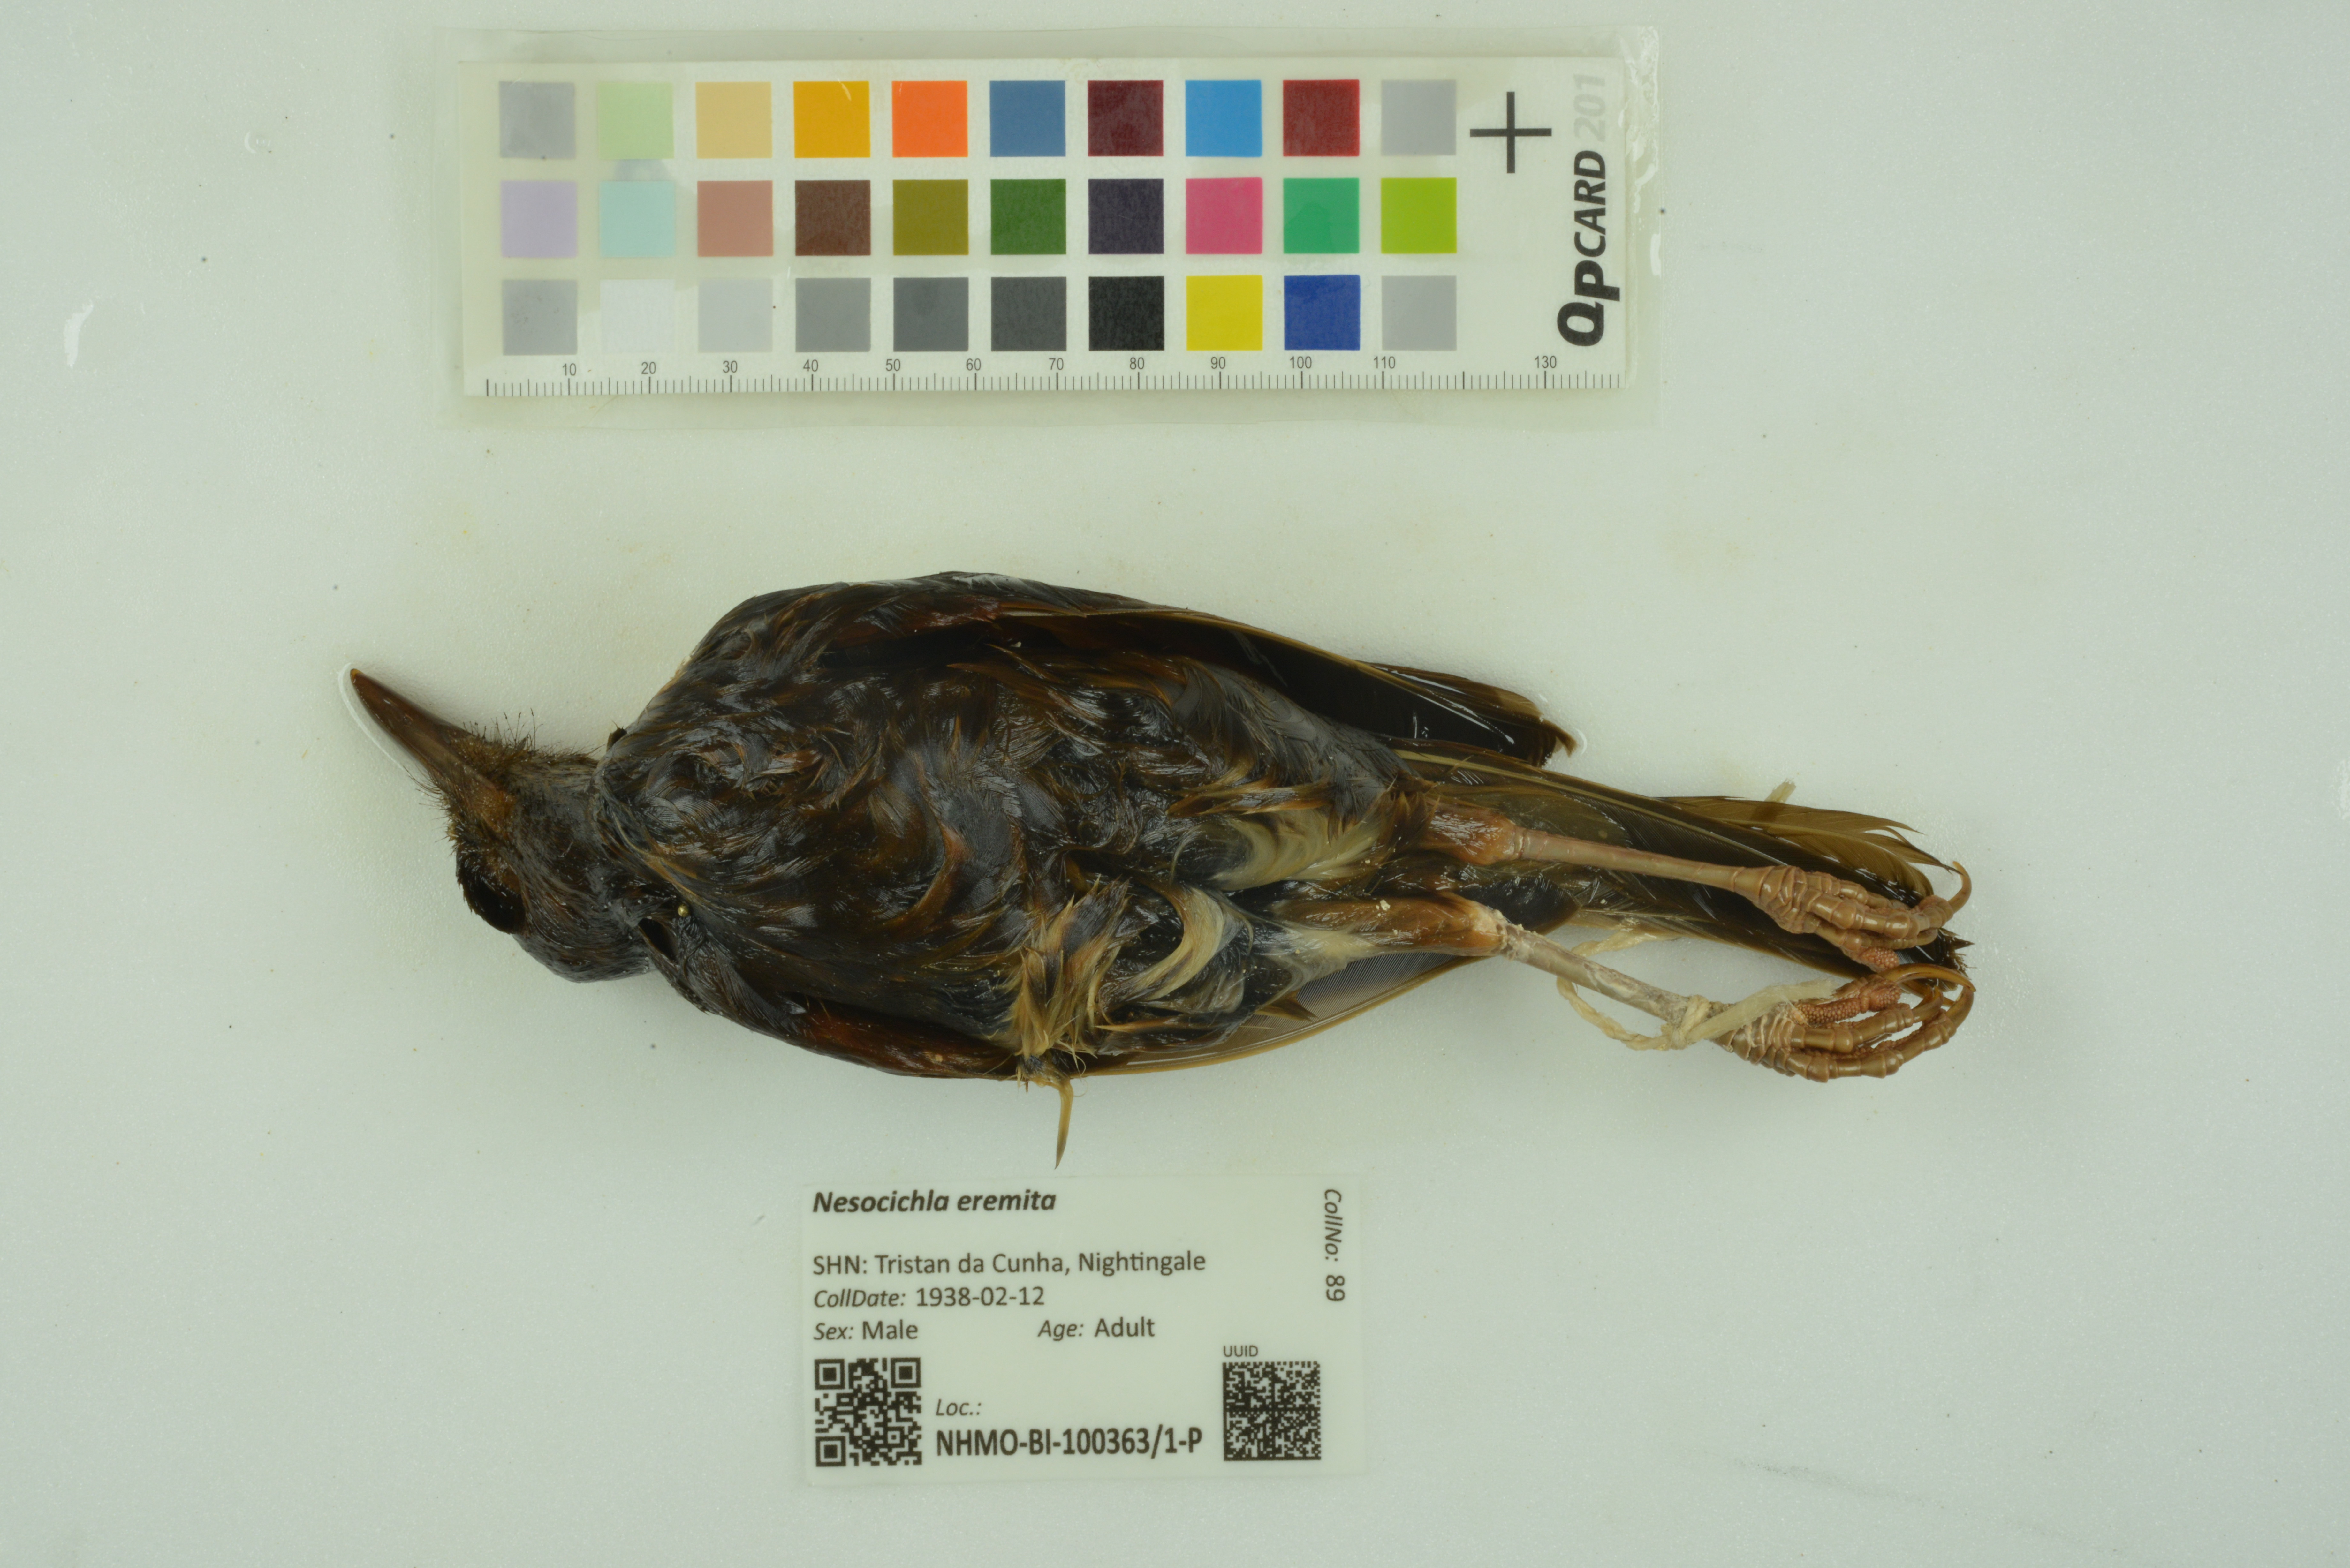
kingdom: Animalia
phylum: Chordata
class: Aves
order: Passeriformes
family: Turdidae
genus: Nesocichla
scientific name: Nesocichla eremita
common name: Tristan thrush
